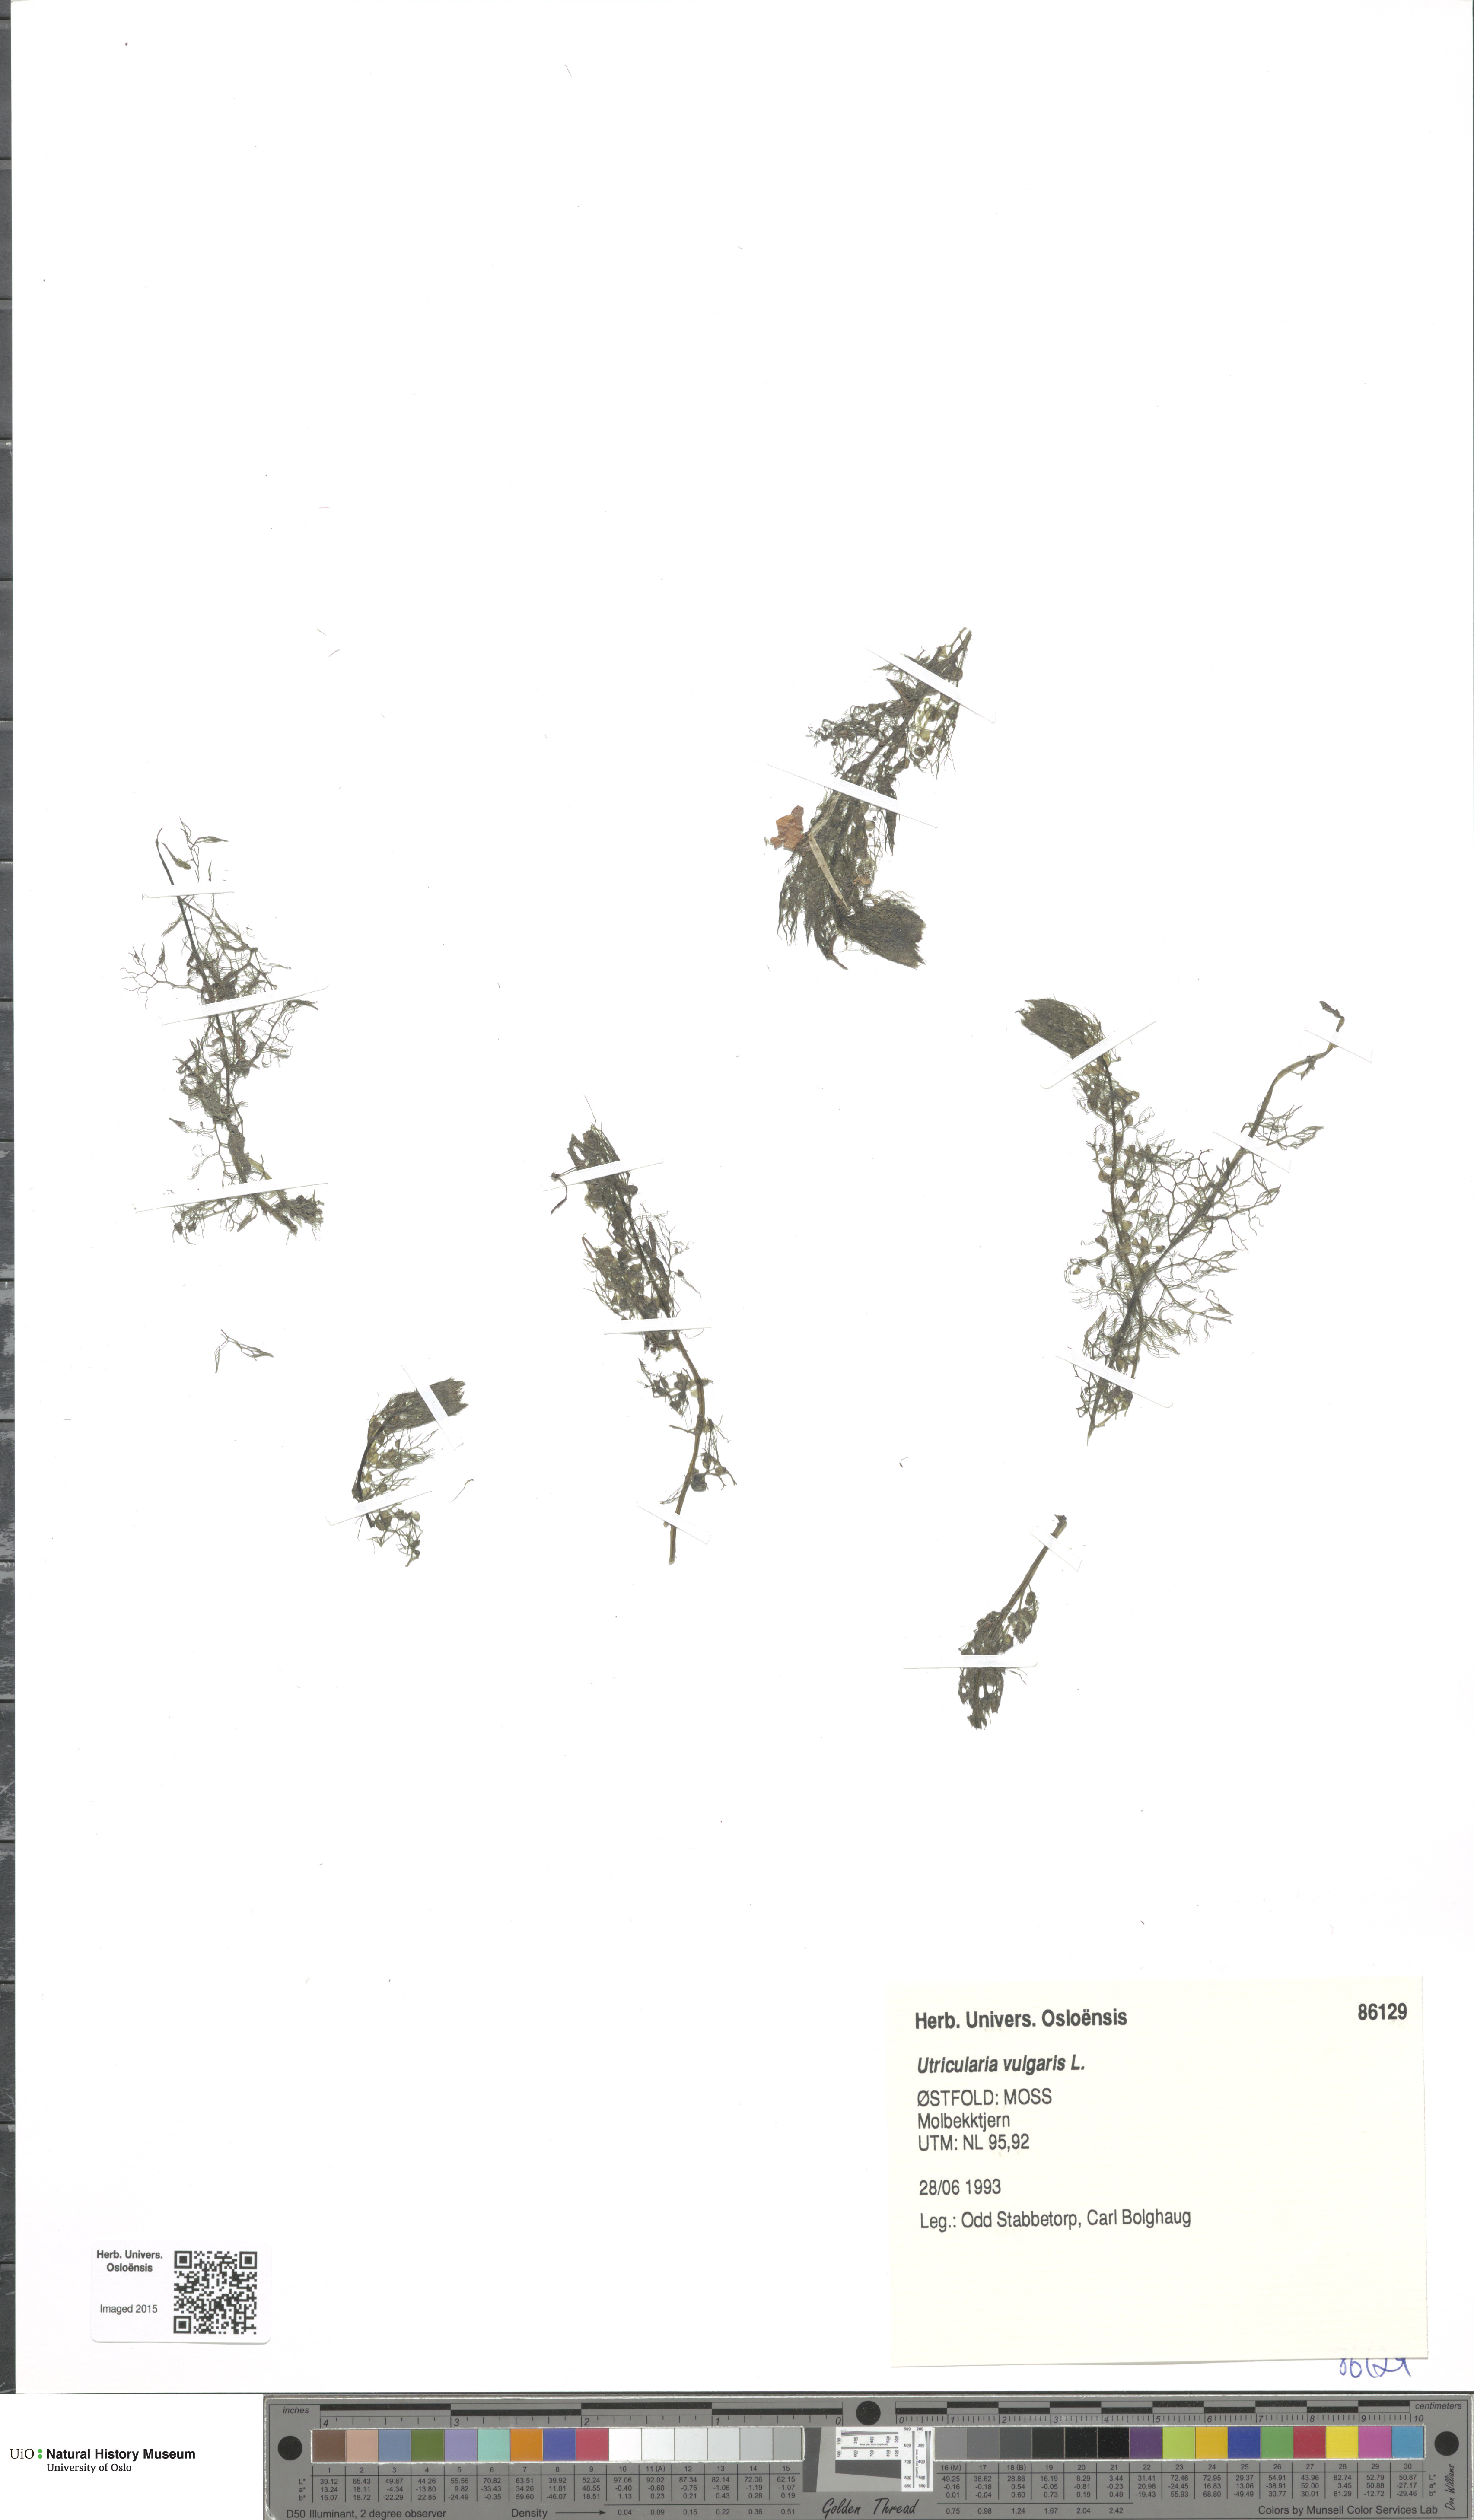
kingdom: Plantae
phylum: Tracheophyta
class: Magnoliopsida
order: Lamiales
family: Lentibulariaceae
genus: Utricularia
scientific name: Utricularia vulgaris
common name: Greater bladderwort
